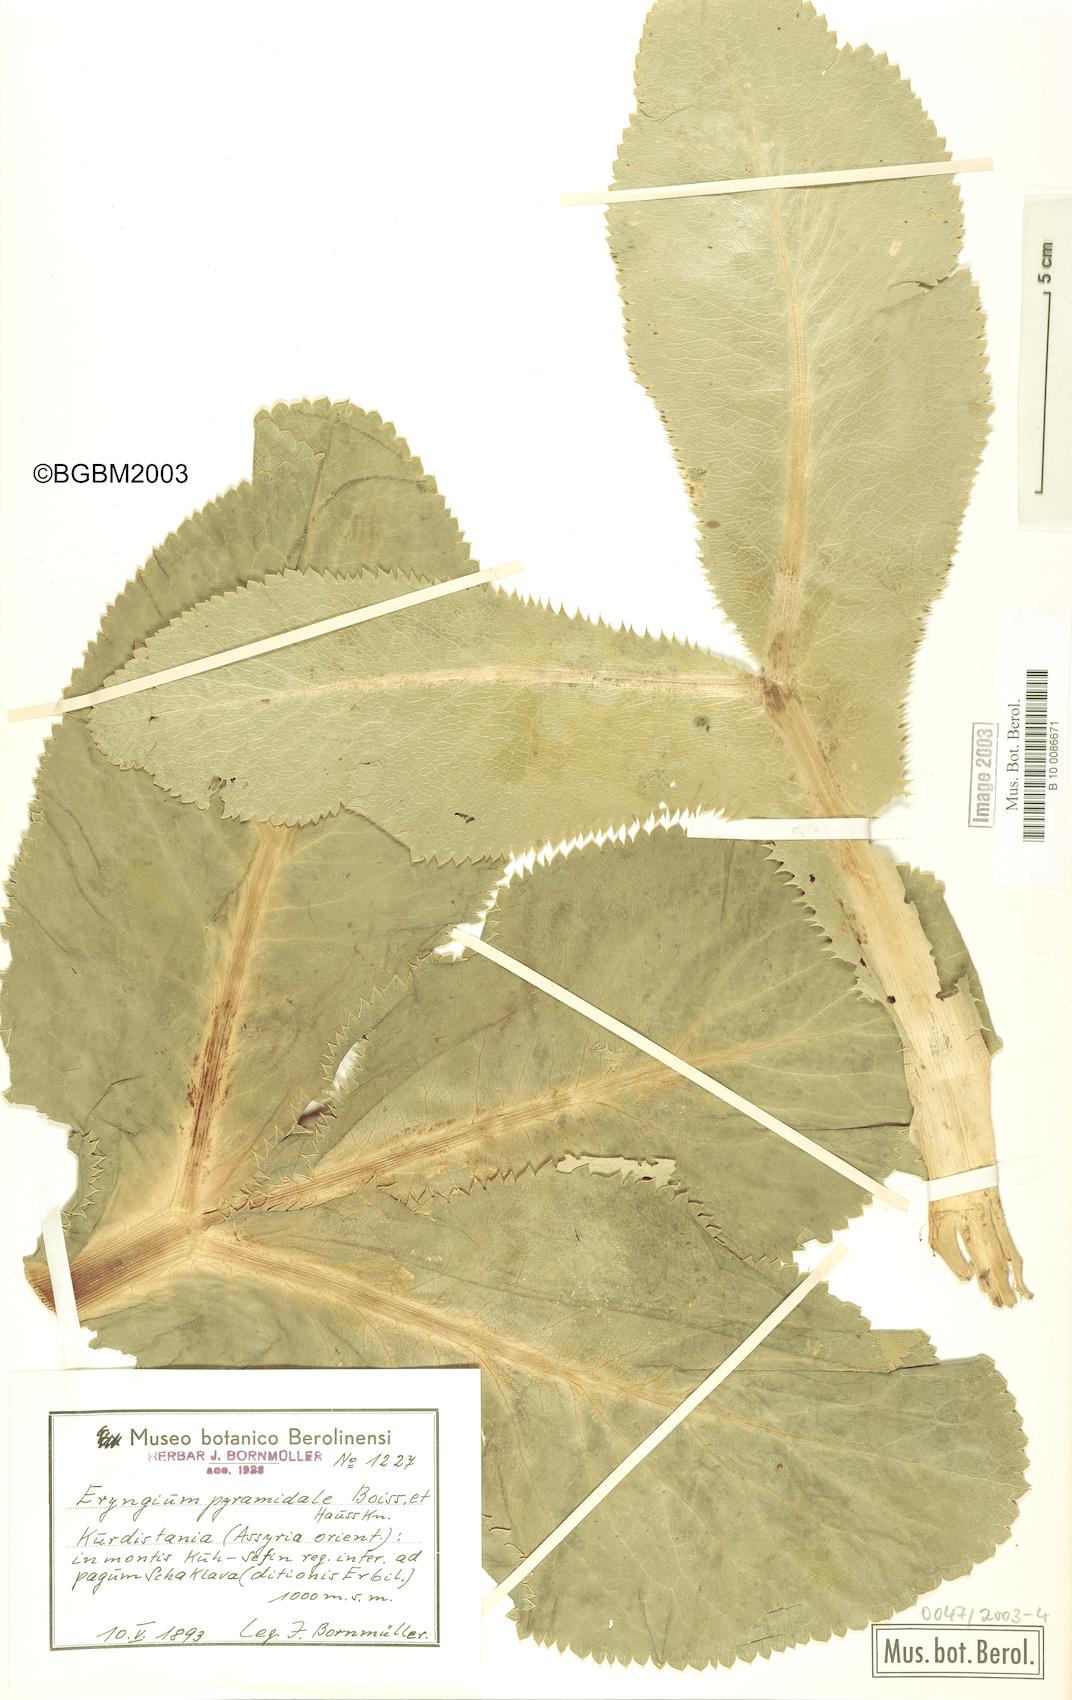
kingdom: Plantae
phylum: Tracheophyta
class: Magnoliopsida
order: Apiales
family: Apiaceae
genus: Eryngium
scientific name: Eryngium pyramidale
